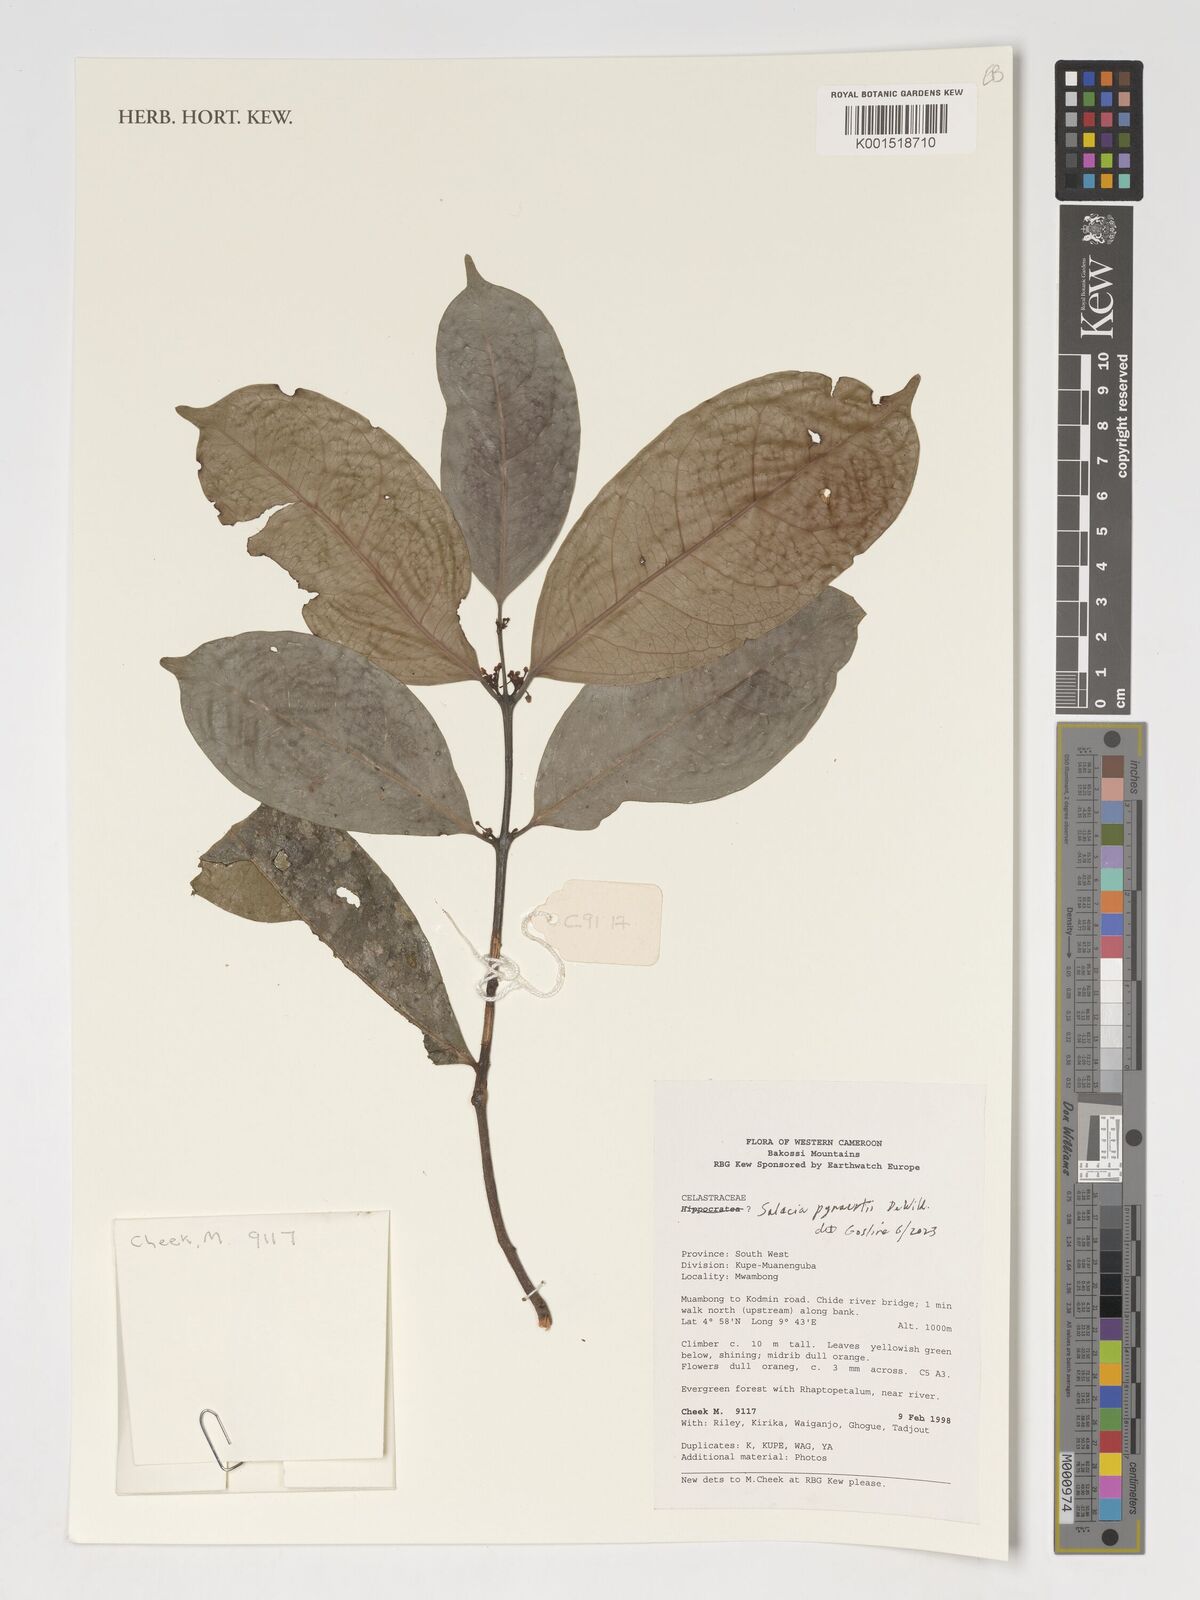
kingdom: Plantae
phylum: Tracheophyta
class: Magnoliopsida
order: Celastrales
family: Celastraceae
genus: Salacia
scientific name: Salacia pynaertii
